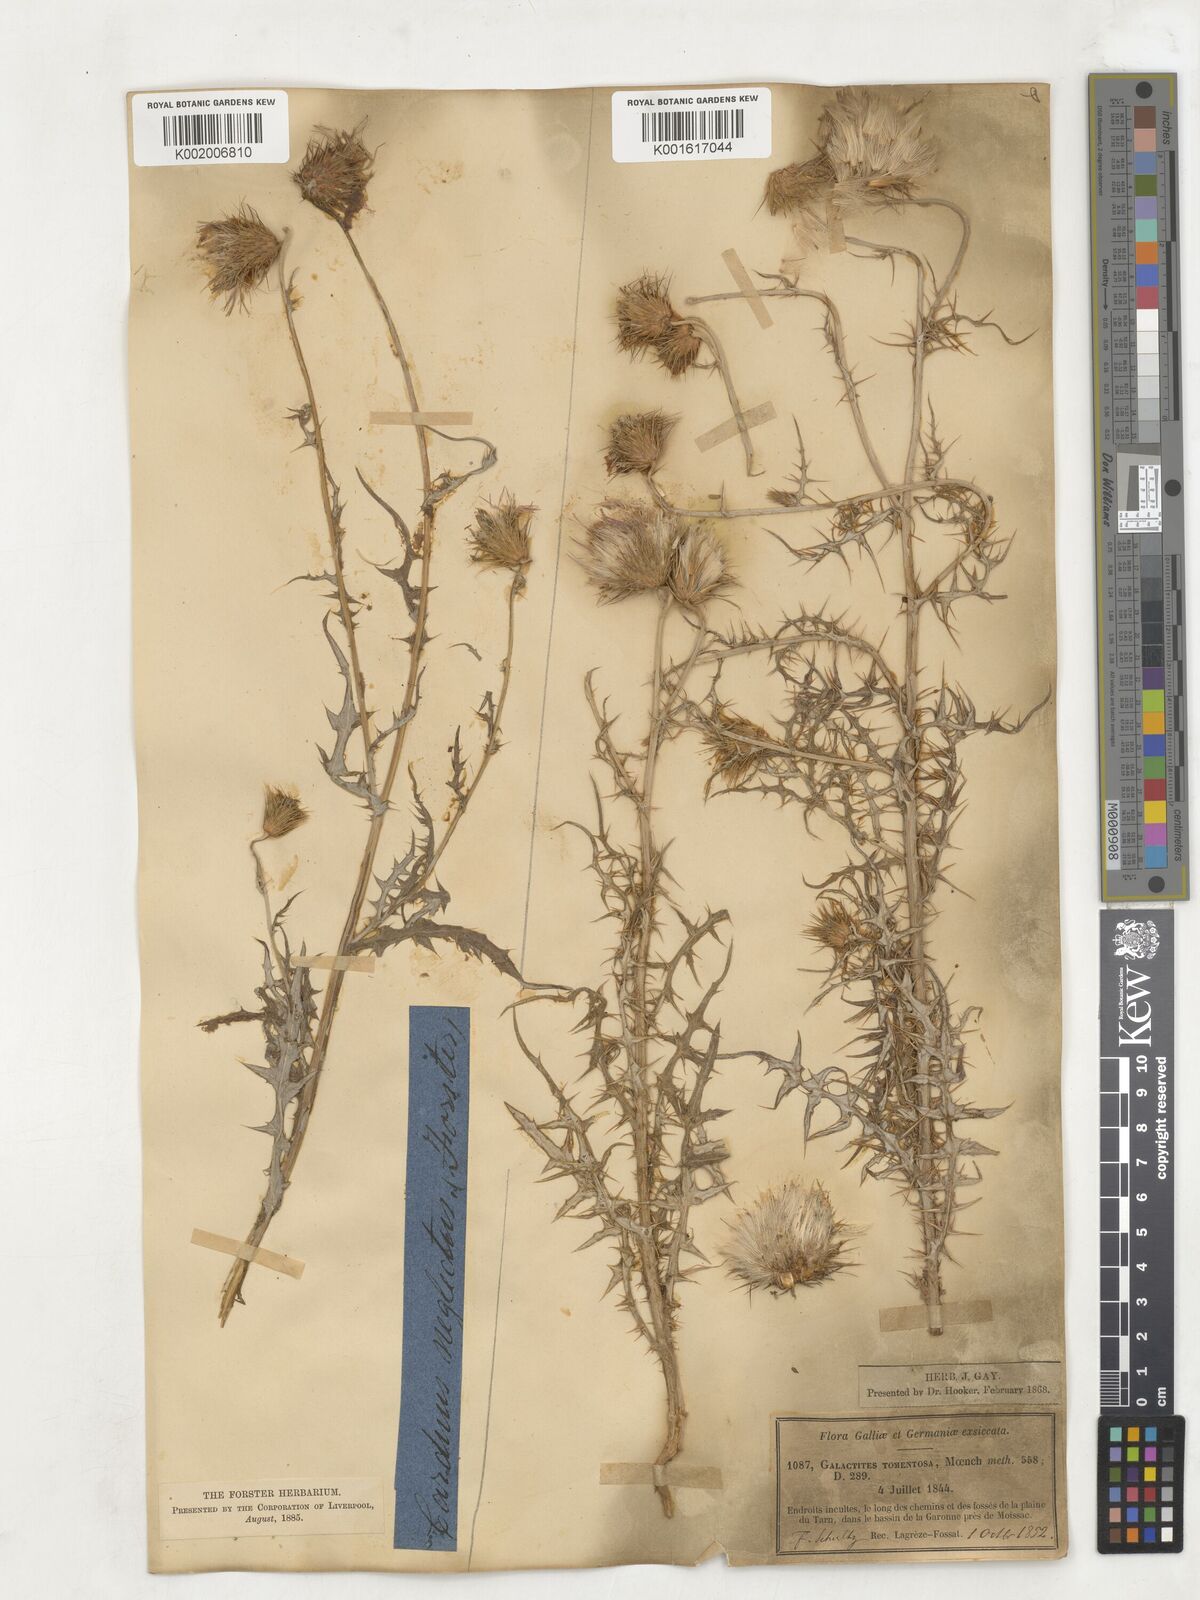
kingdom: Plantae
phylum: Tracheophyta
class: Magnoliopsida
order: Asterales
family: Asteraceae
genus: Galactites
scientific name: Galactites
